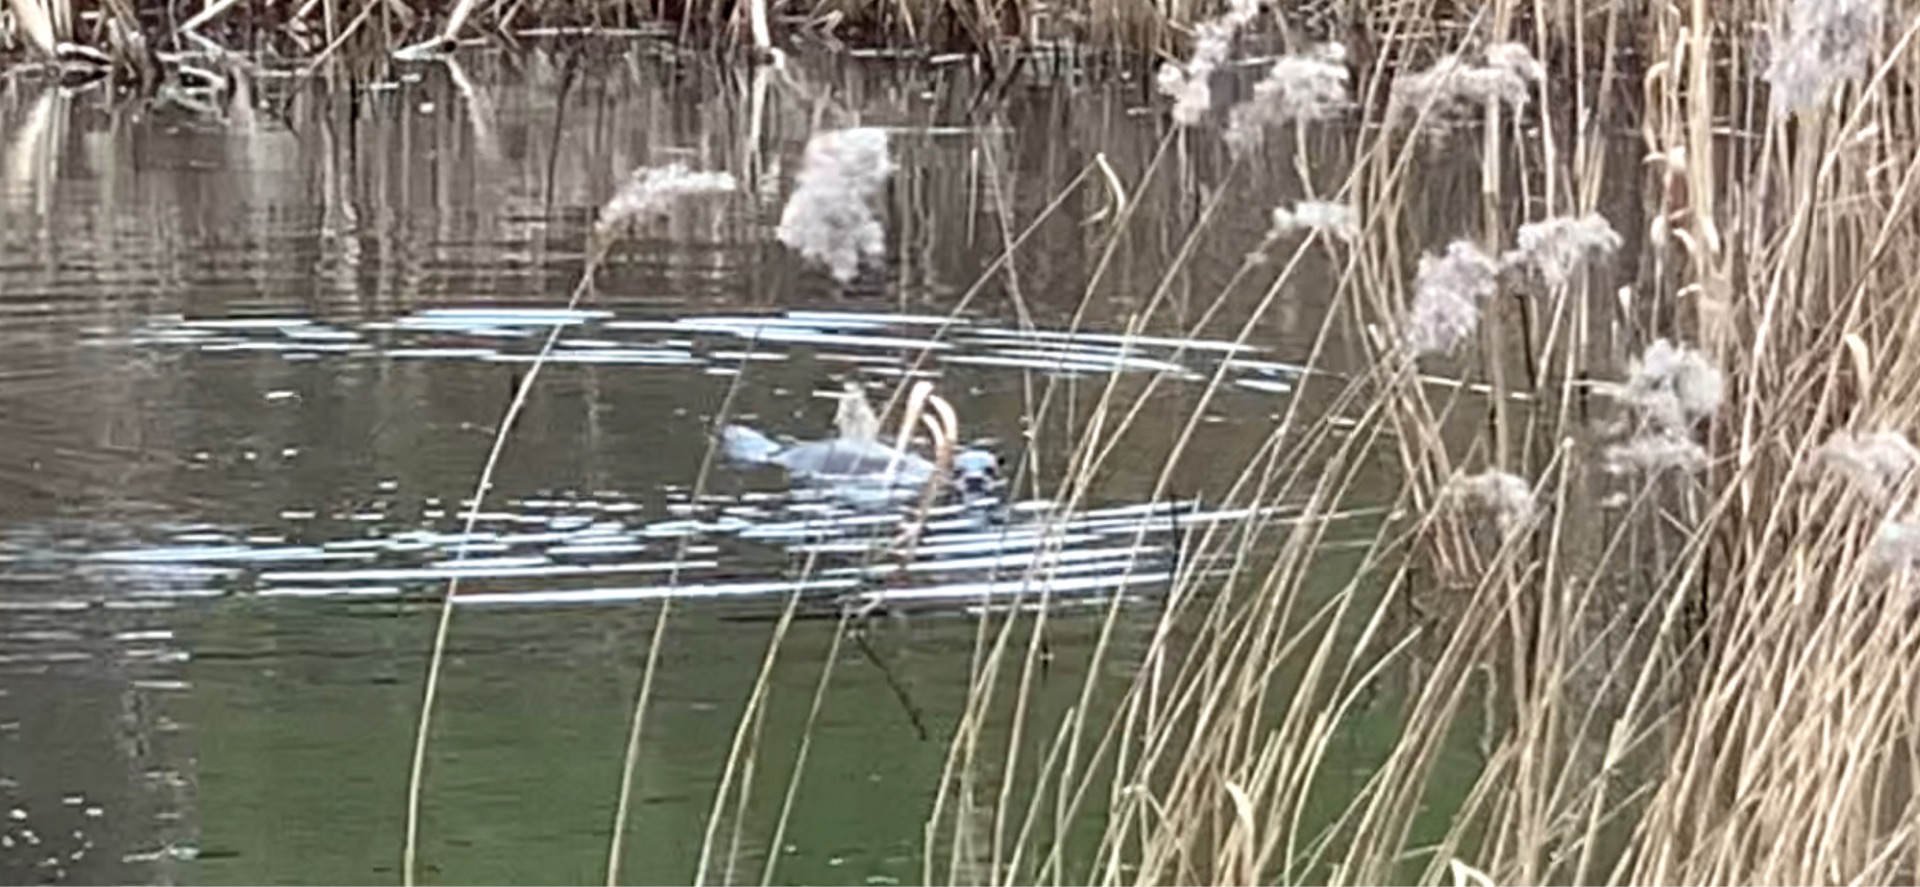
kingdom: Animalia
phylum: Chordata
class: Mammalia
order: Carnivora
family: Mustelidae
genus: Lutra
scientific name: Lutra lutra
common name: Odder
